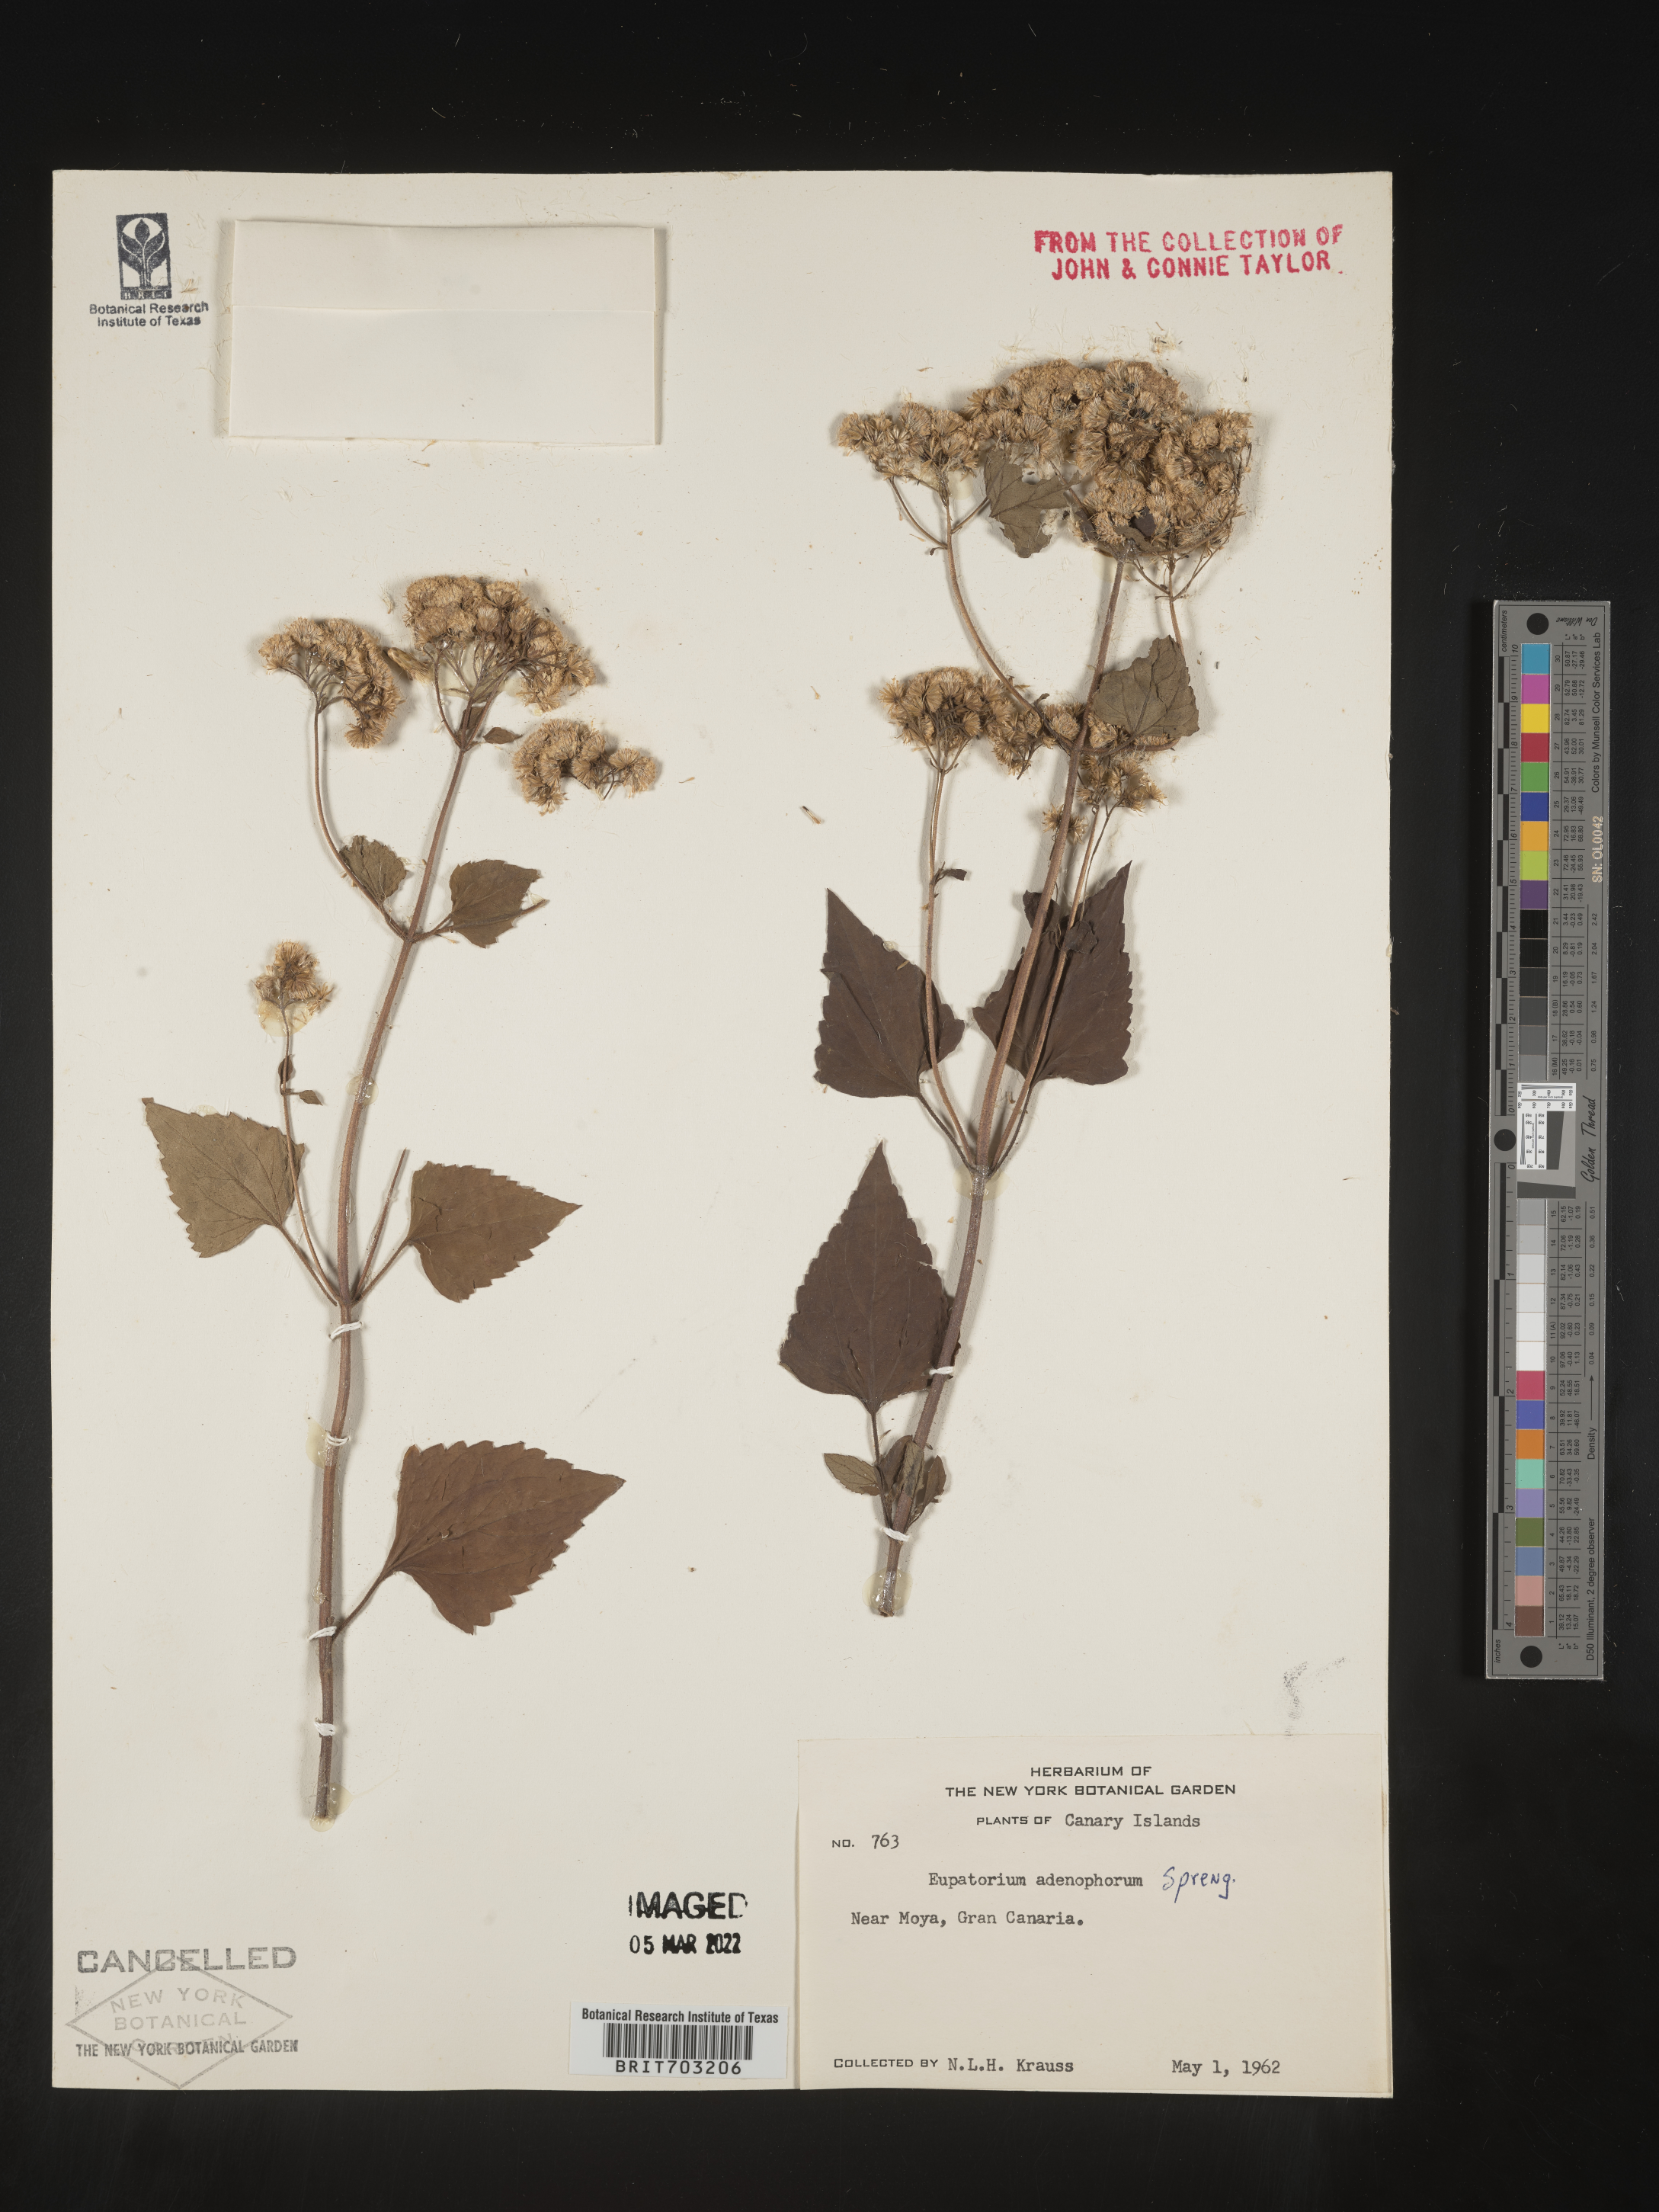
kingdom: Plantae
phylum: Tracheophyta
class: Magnoliopsida
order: Asterales
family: Asteraceae
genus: Eupatorium
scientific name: Eupatorium
